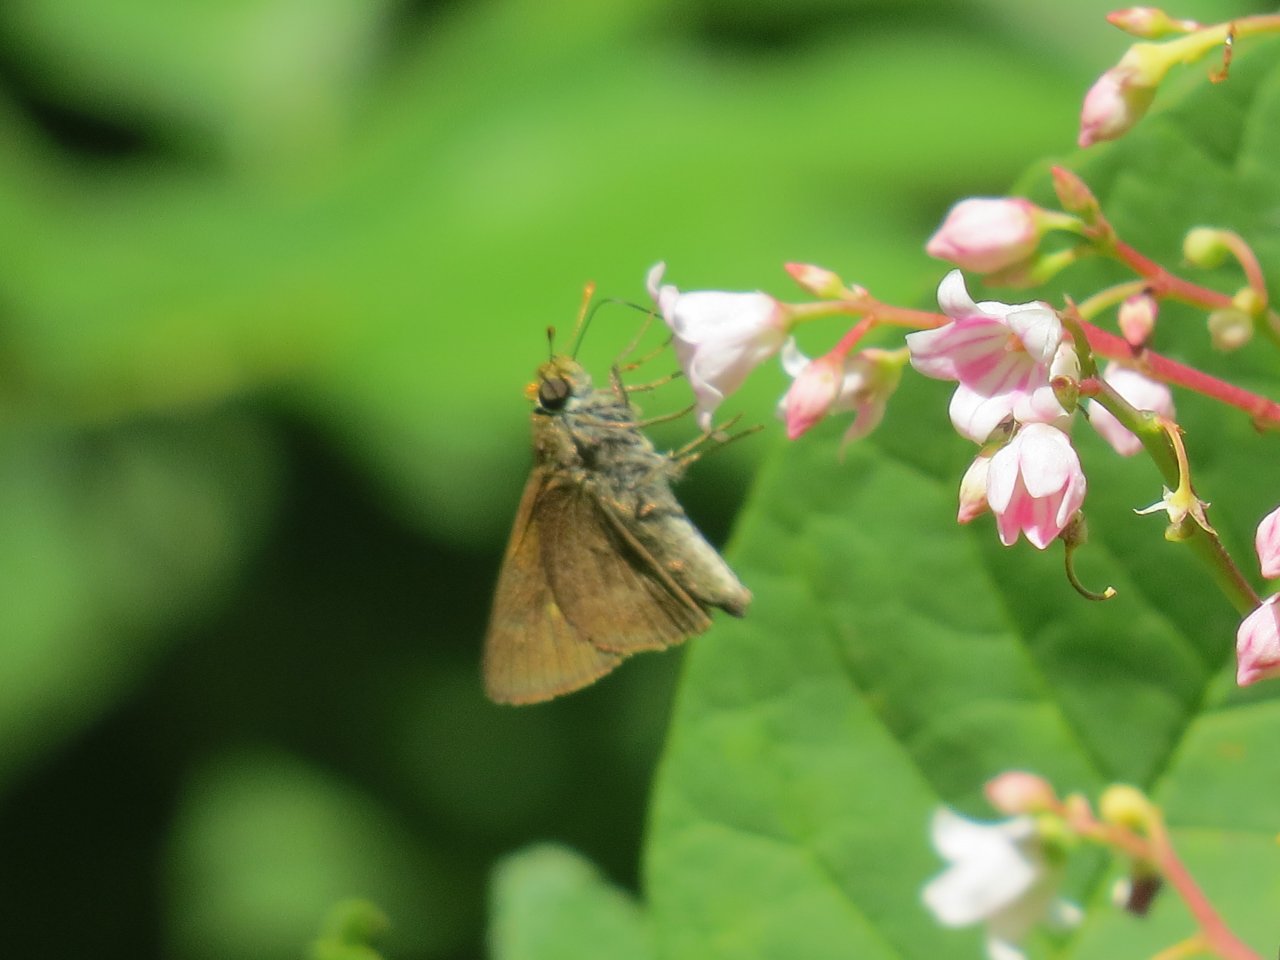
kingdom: Animalia
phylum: Arthropoda
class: Insecta
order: Lepidoptera
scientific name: Lepidoptera
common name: Butterflies
